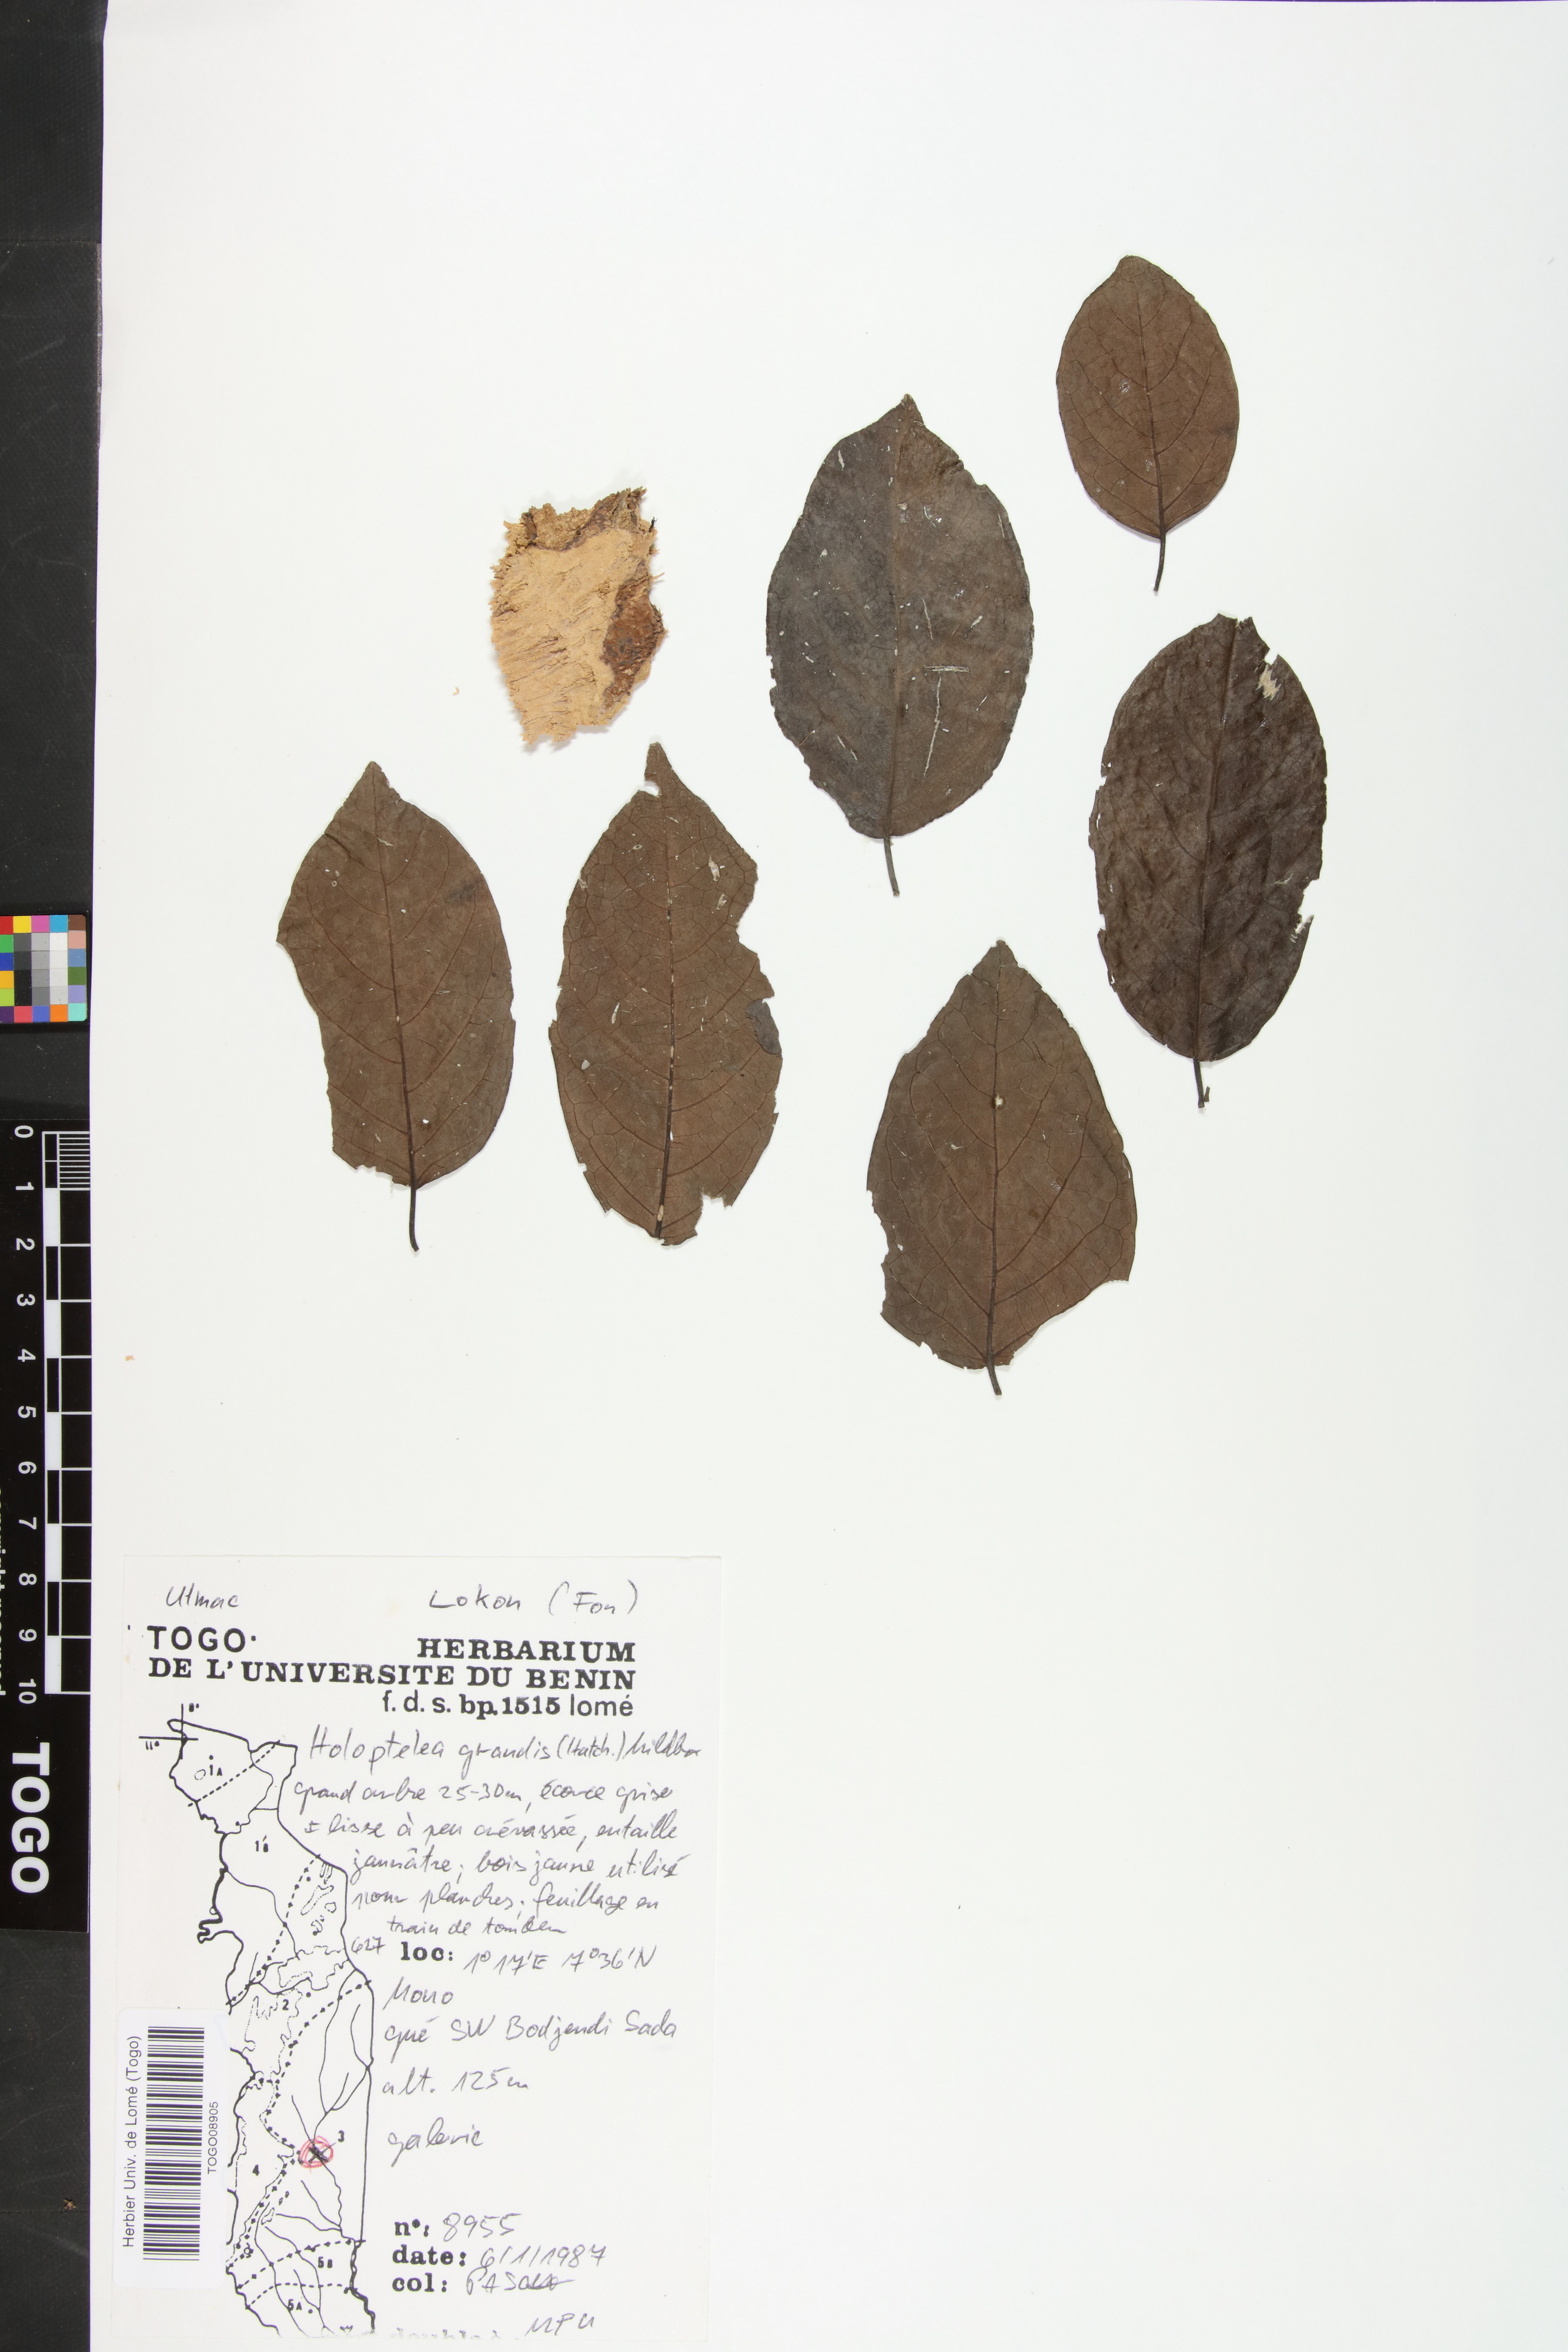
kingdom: Plantae
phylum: Tracheophyta
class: Magnoliopsida
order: Rosales
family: Ulmaceae
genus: Holoptelea
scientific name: Holoptelea grandis
